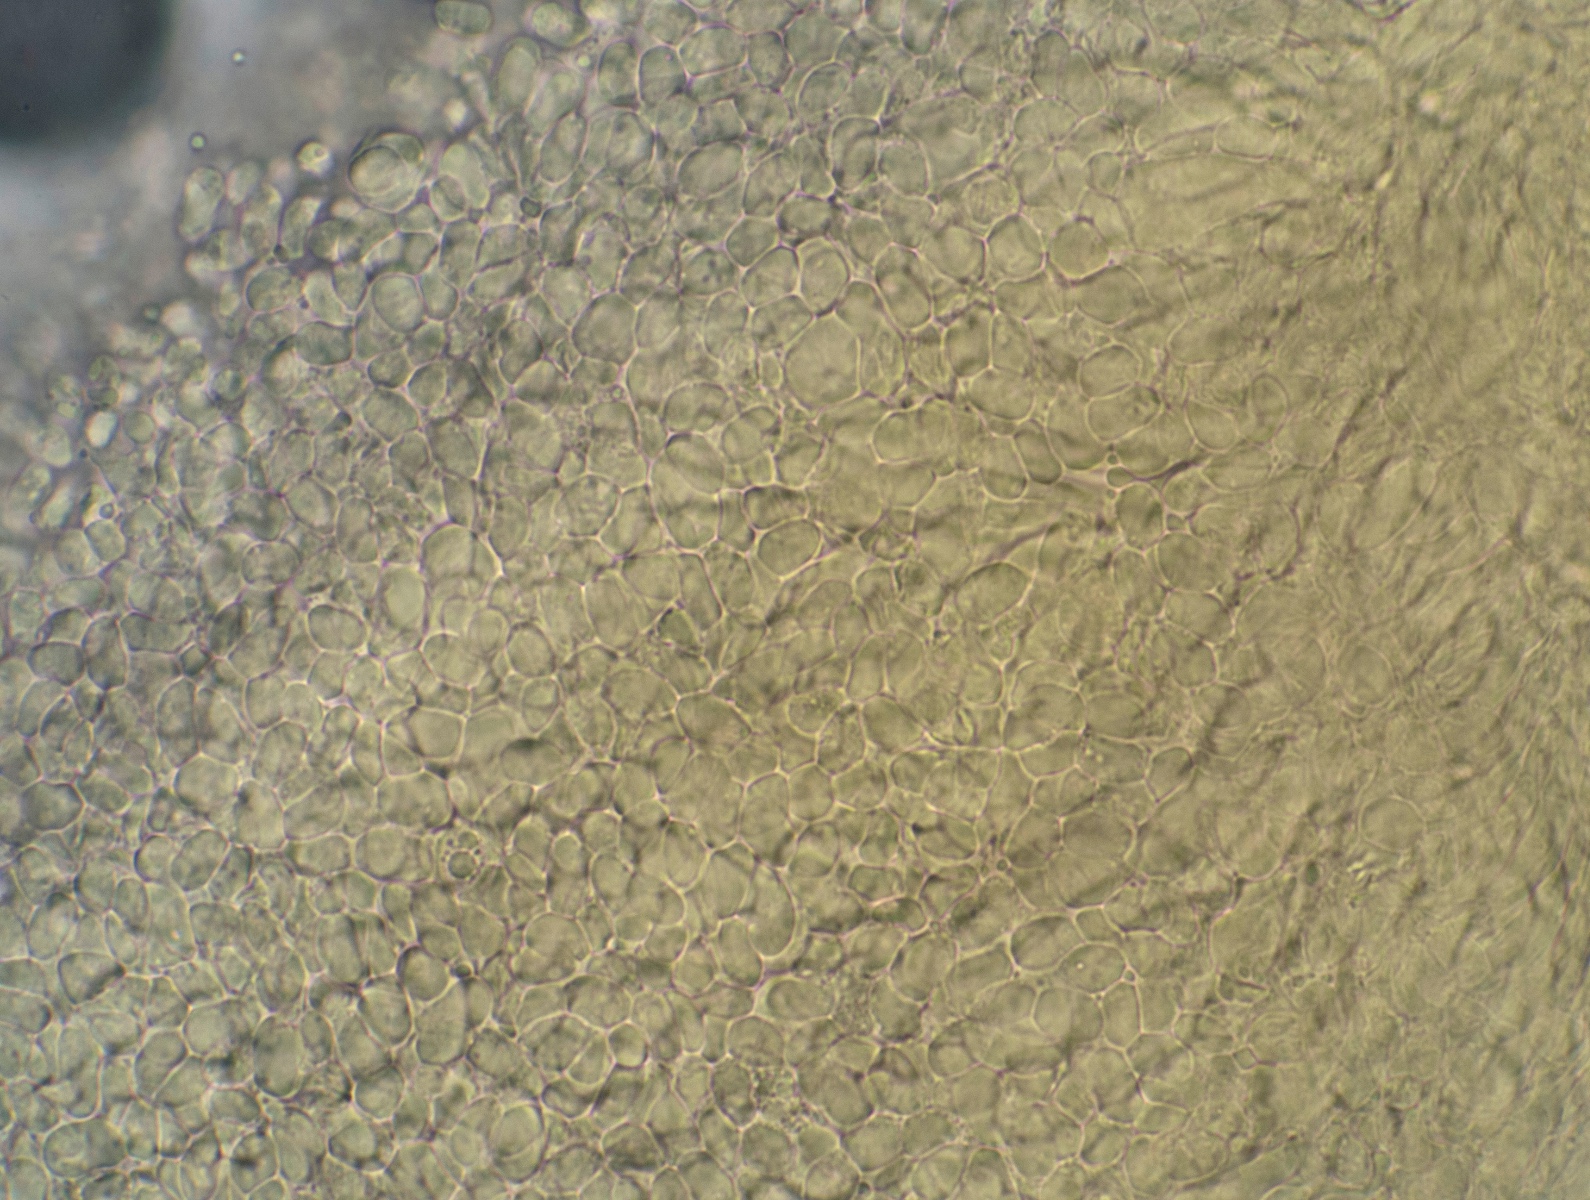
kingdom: Fungi
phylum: Basidiomycota
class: Agaricomycetes
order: Agaricales
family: Hygrophoraceae
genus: Hygrocybe
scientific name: Hygrocybe
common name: vokshat
